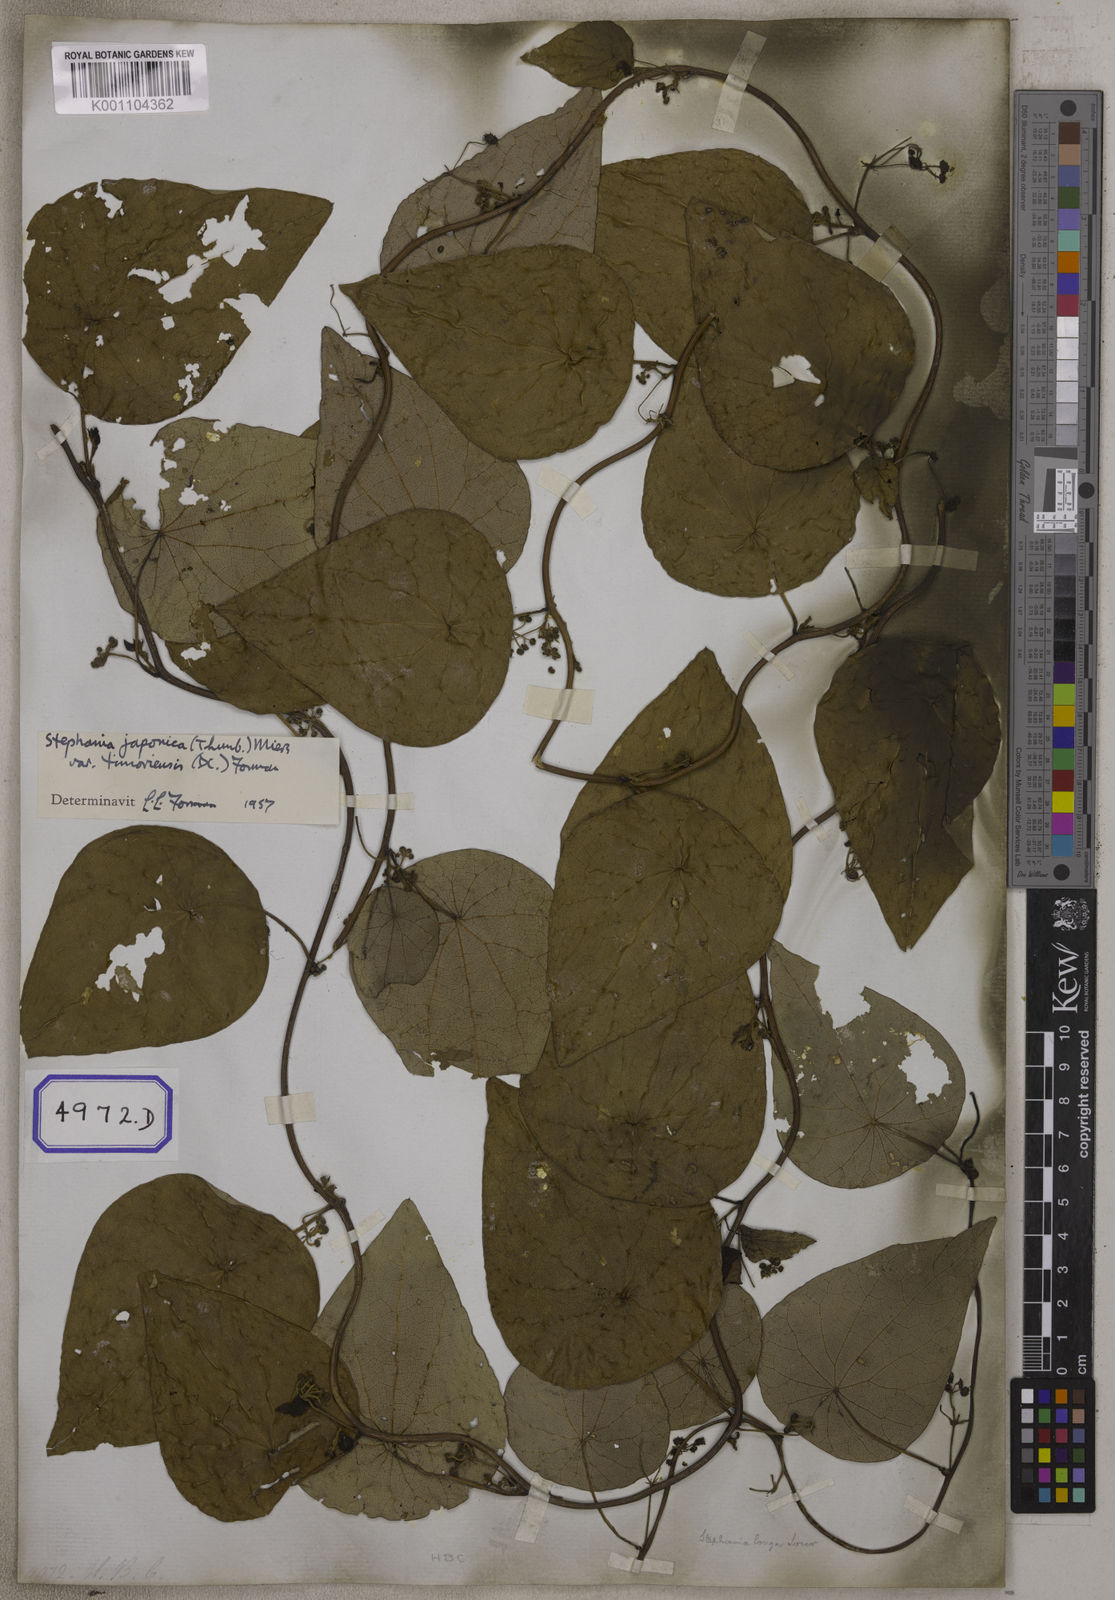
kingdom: Plantae
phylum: Tracheophyta
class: Magnoliopsida
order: Ranunculales
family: Menispermaceae
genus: Stephania
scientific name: Stephania japonica
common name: Snake vine
